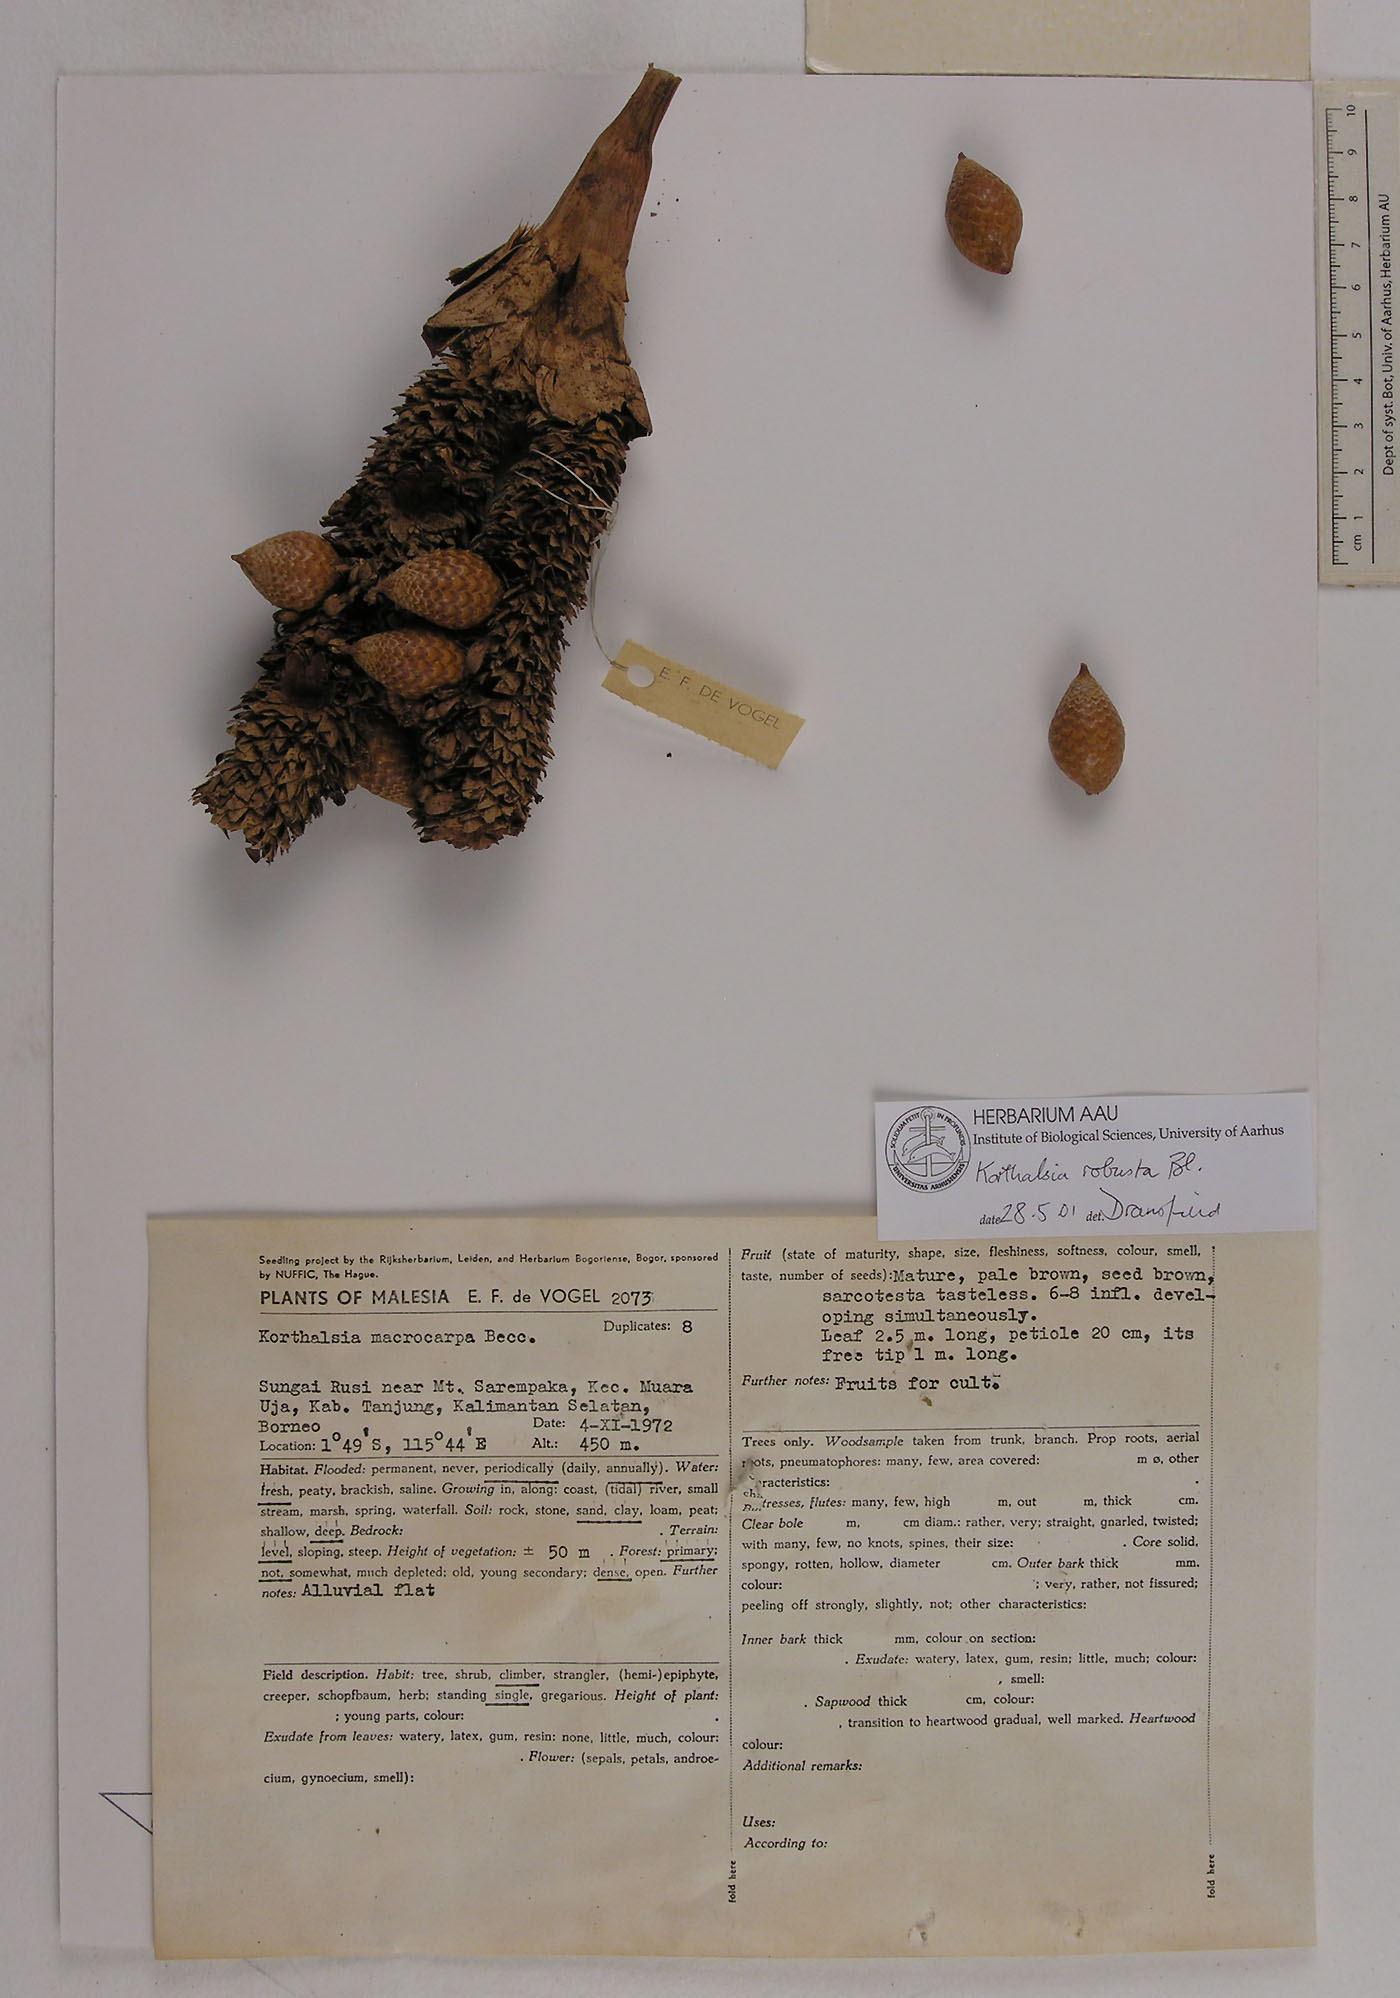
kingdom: Plantae
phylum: Tracheophyta
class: Liliopsida
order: Arecales
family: Arecaceae
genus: Korthalsia
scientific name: Korthalsia robusta
